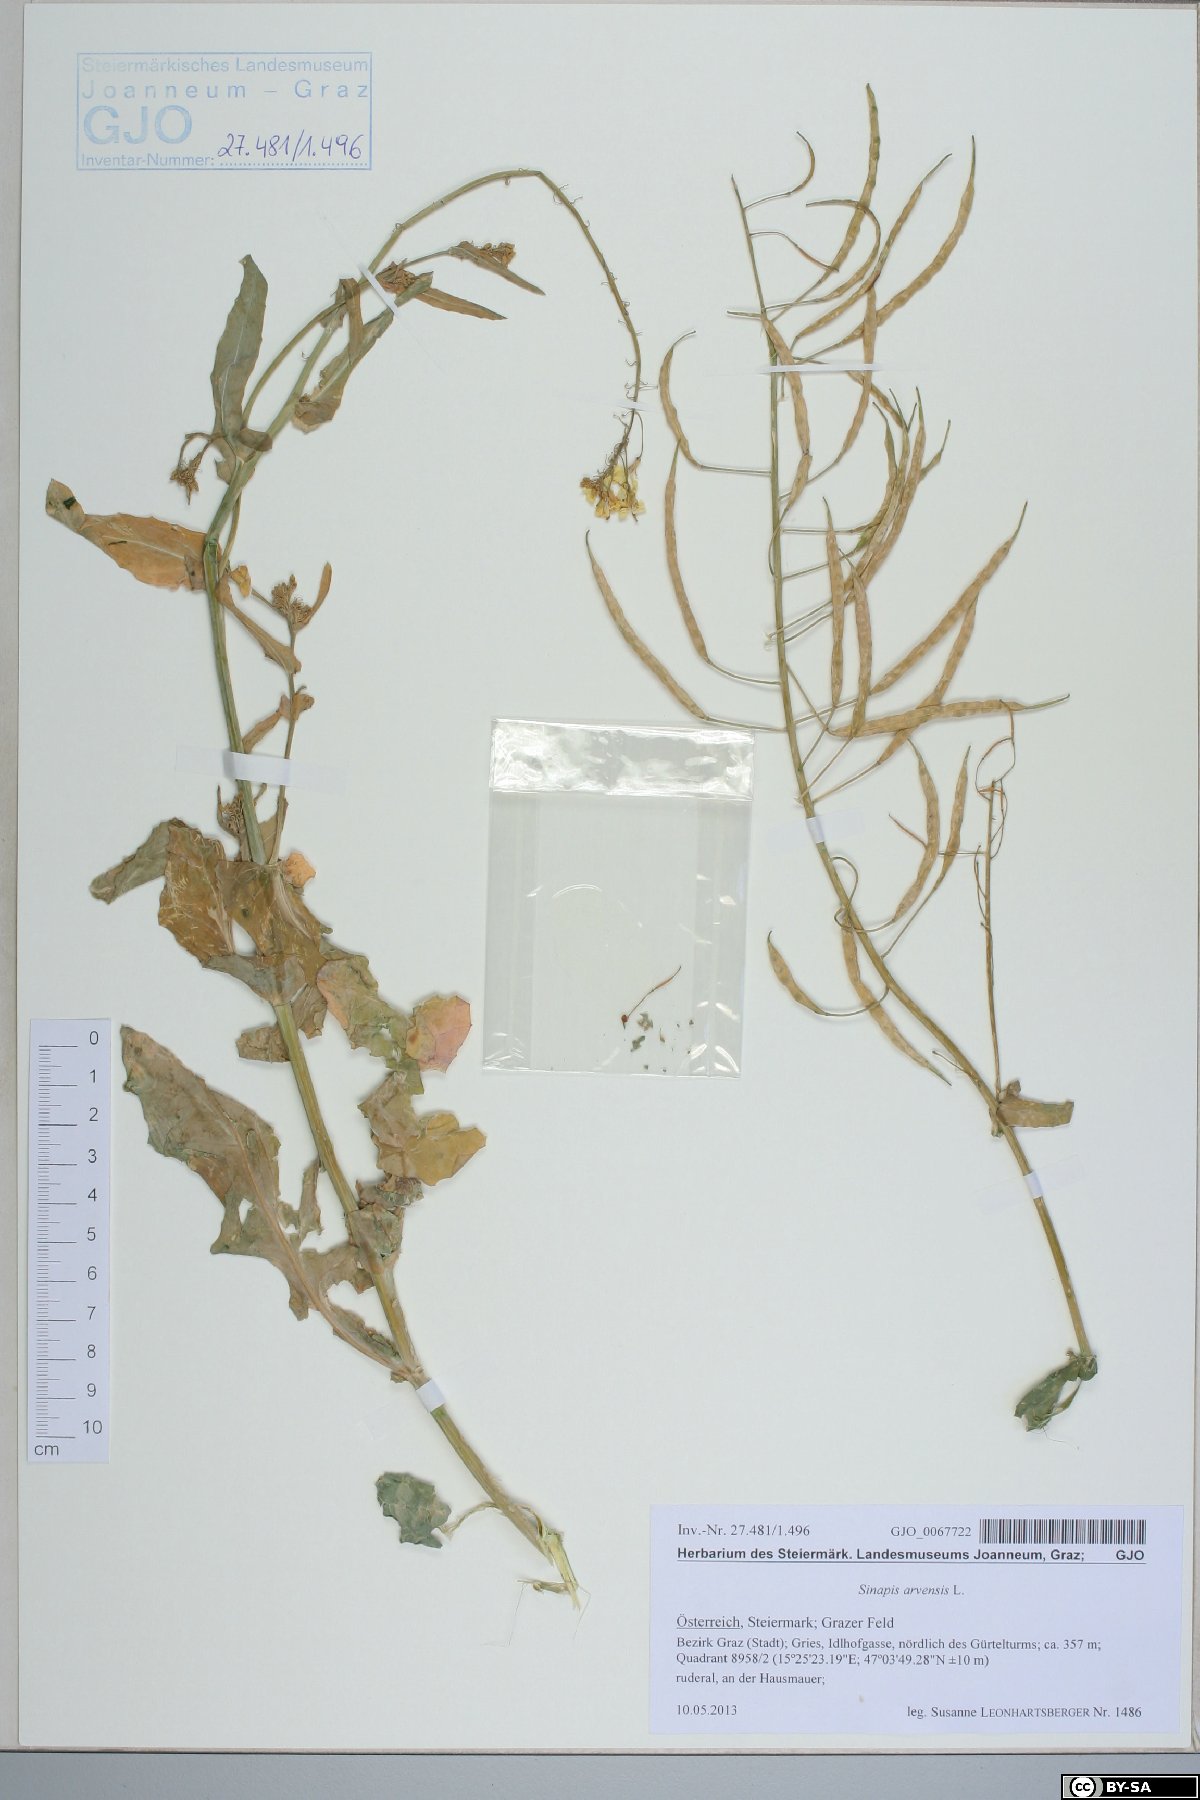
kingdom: Plantae
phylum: Tracheophyta
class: Magnoliopsida
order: Brassicales
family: Brassicaceae
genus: Sinapis
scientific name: Sinapis arvensis
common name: Charlock
